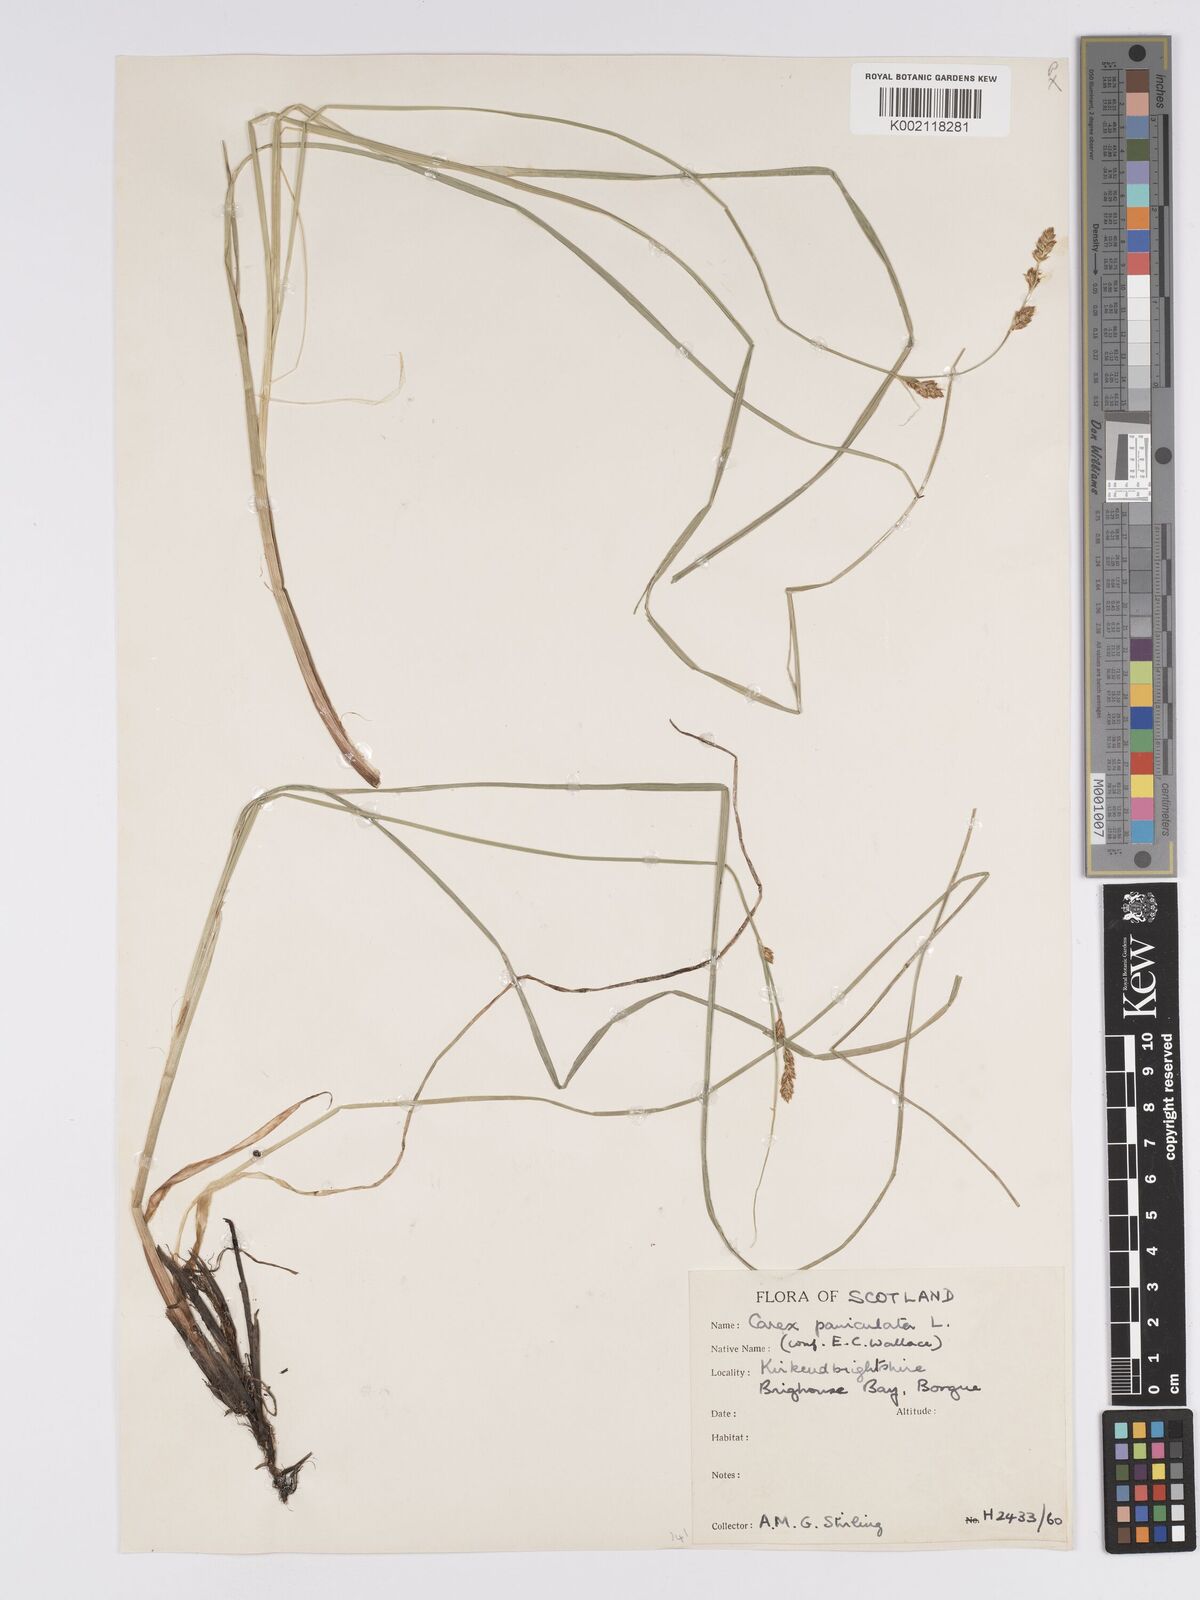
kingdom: Plantae
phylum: Tracheophyta
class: Liliopsida
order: Poales
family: Cyperaceae
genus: Carex
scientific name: Carex paniculata
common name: Greater tussock-sedge
